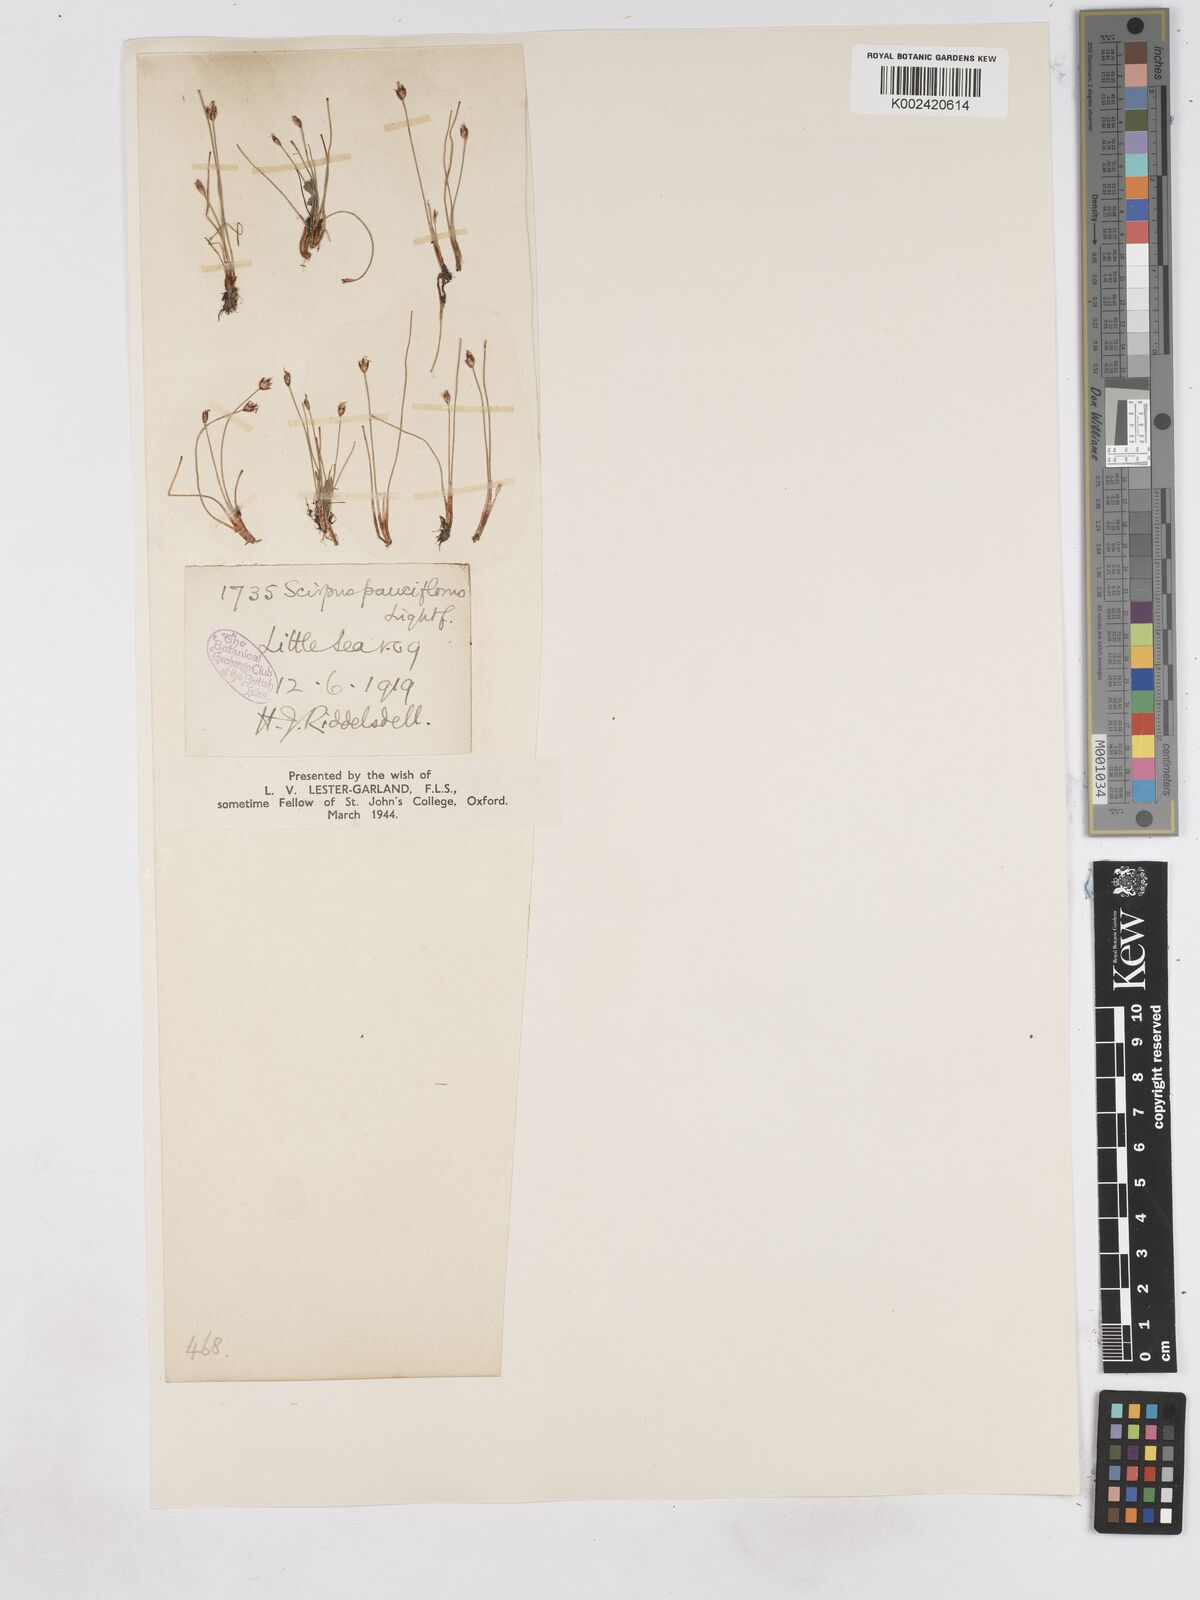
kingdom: Plantae
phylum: Tracheophyta
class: Liliopsida
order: Poales
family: Cyperaceae
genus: Eleocharis
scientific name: Eleocharis quinqueflora
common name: Few-flowered spike-rush
